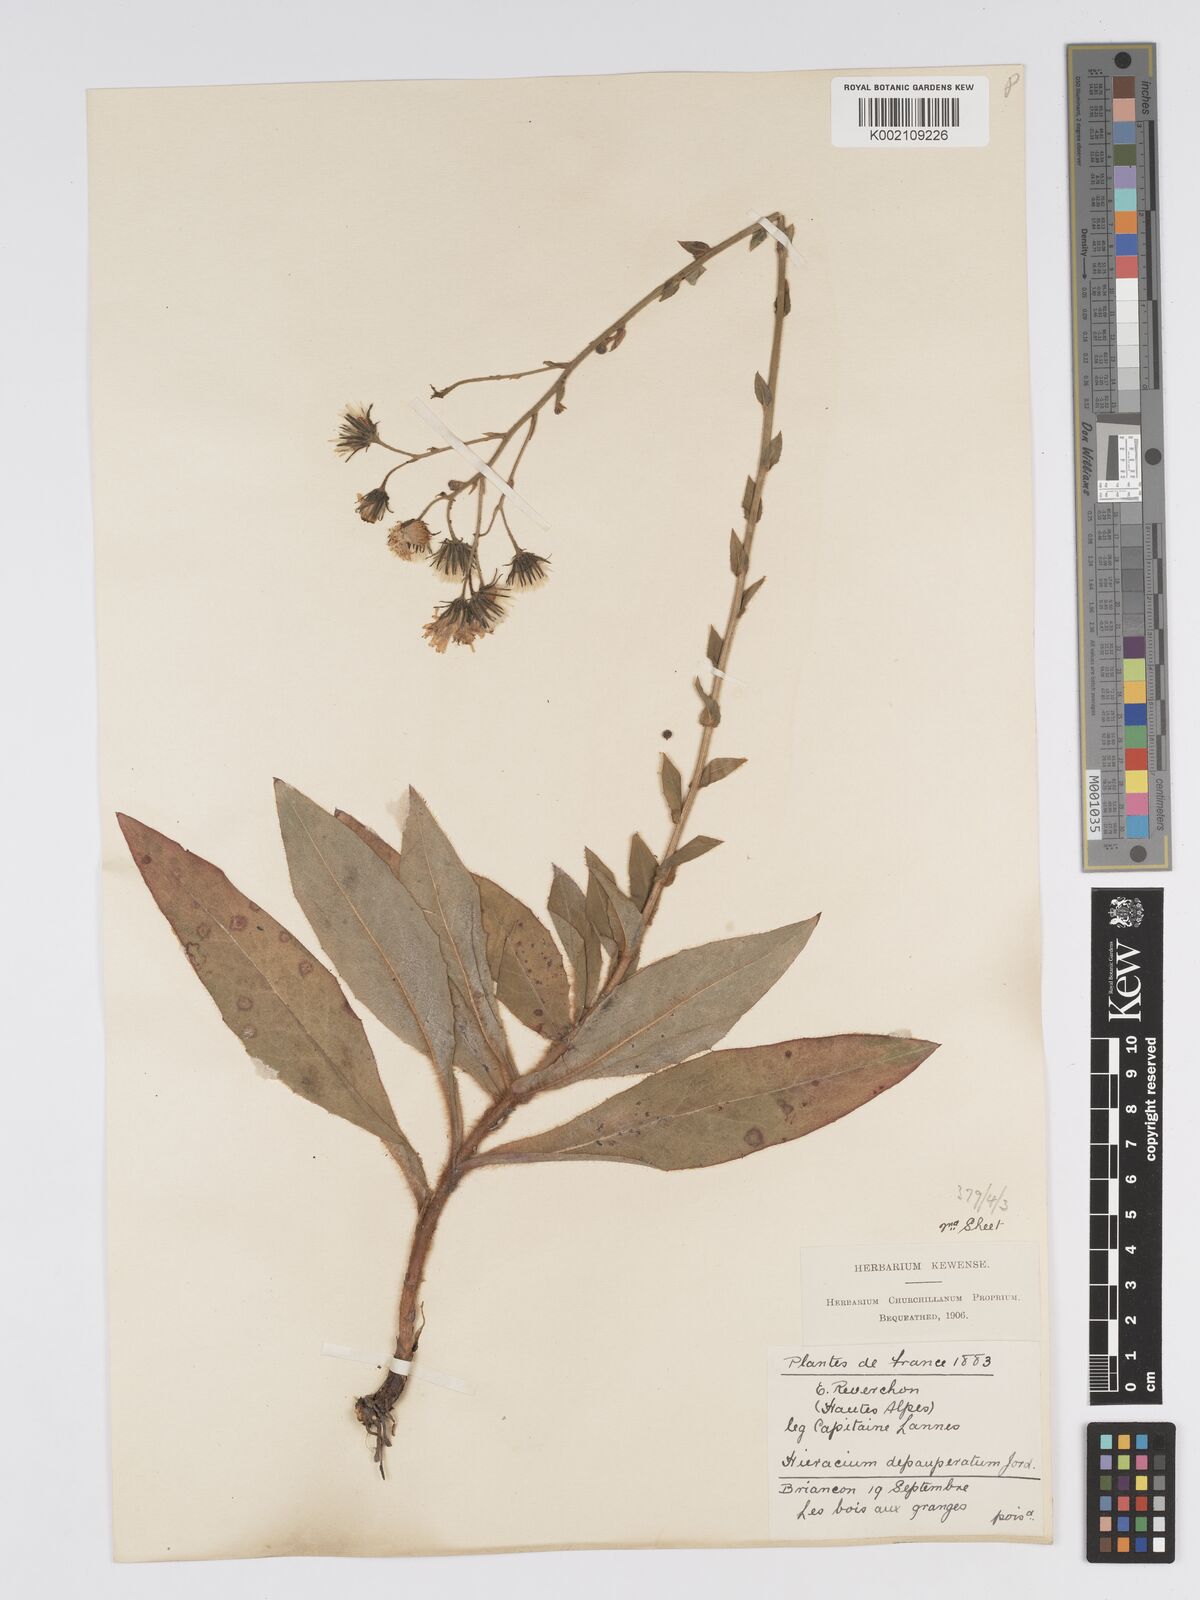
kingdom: Plantae
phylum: Tracheophyta
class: Magnoliopsida
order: Asterales
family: Asteraceae
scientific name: Asteraceae
